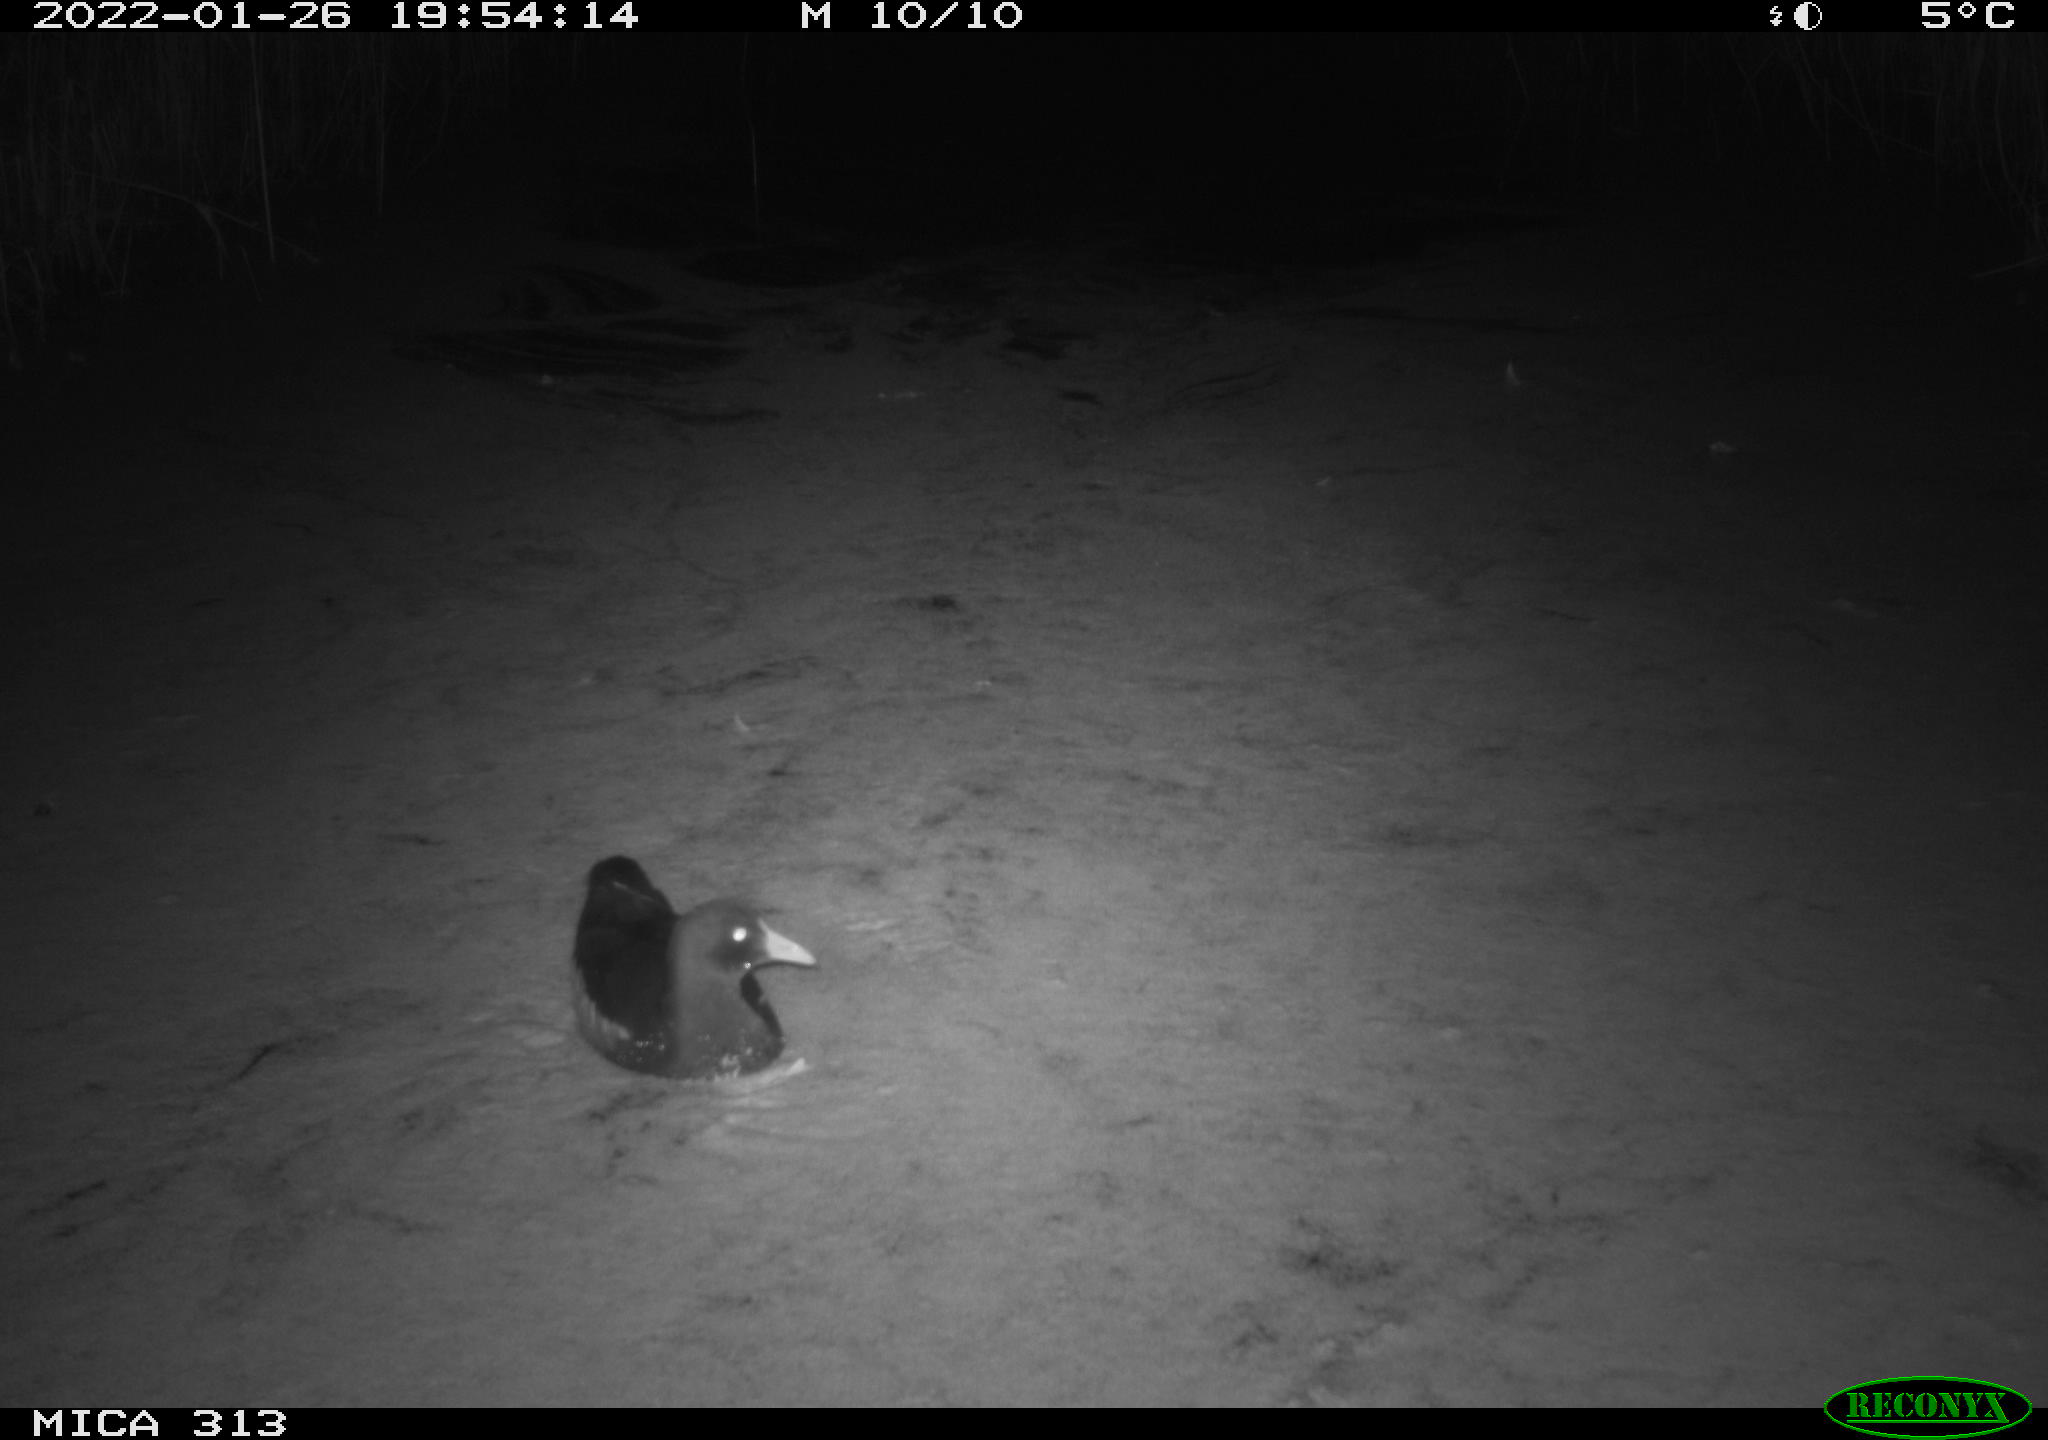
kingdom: Animalia
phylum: Chordata
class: Aves
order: Gruiformes
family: Rallidae
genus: Gallinula
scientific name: Gallinula chloropus
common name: Common moorhen
